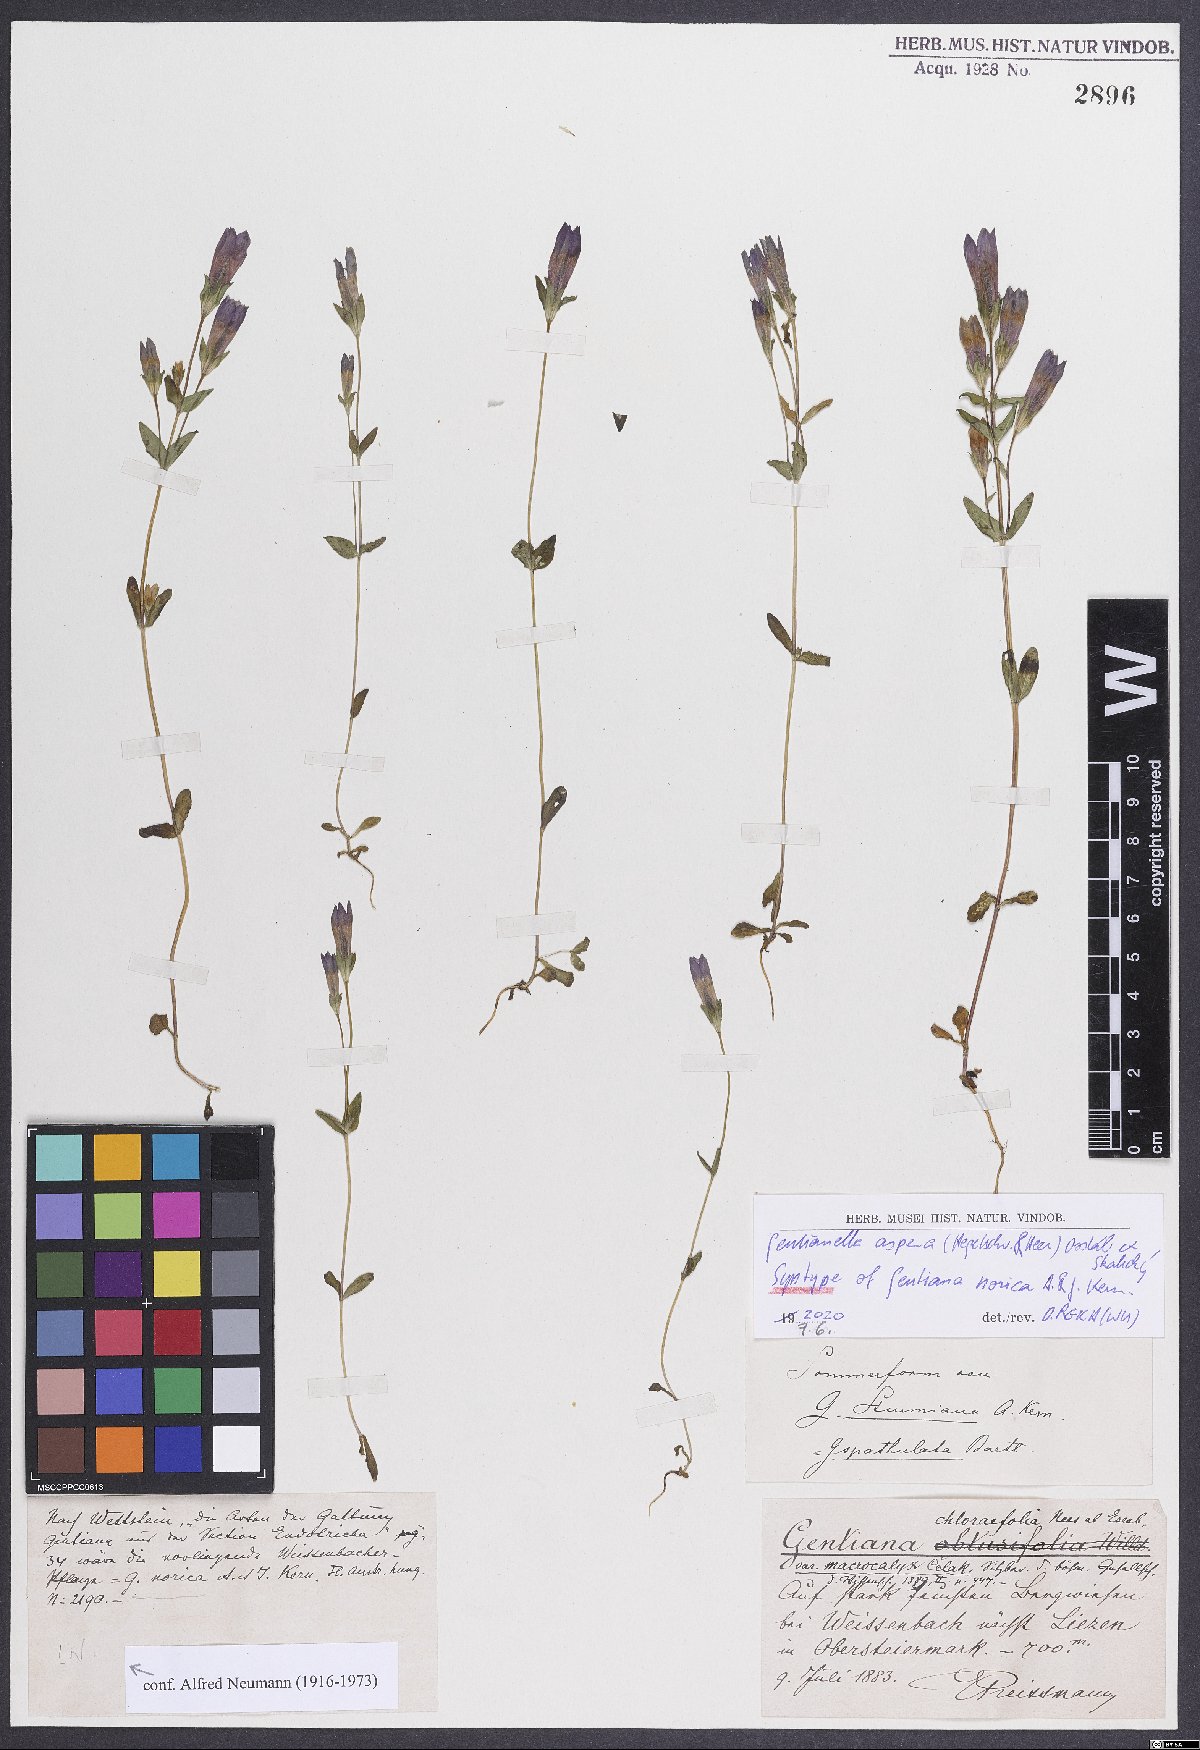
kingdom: Plantae
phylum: Tracheophyta
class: Magnoliopsida
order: Gentianales
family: Gentianaceae
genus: Gentianella
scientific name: Gentianella obtusifolia
